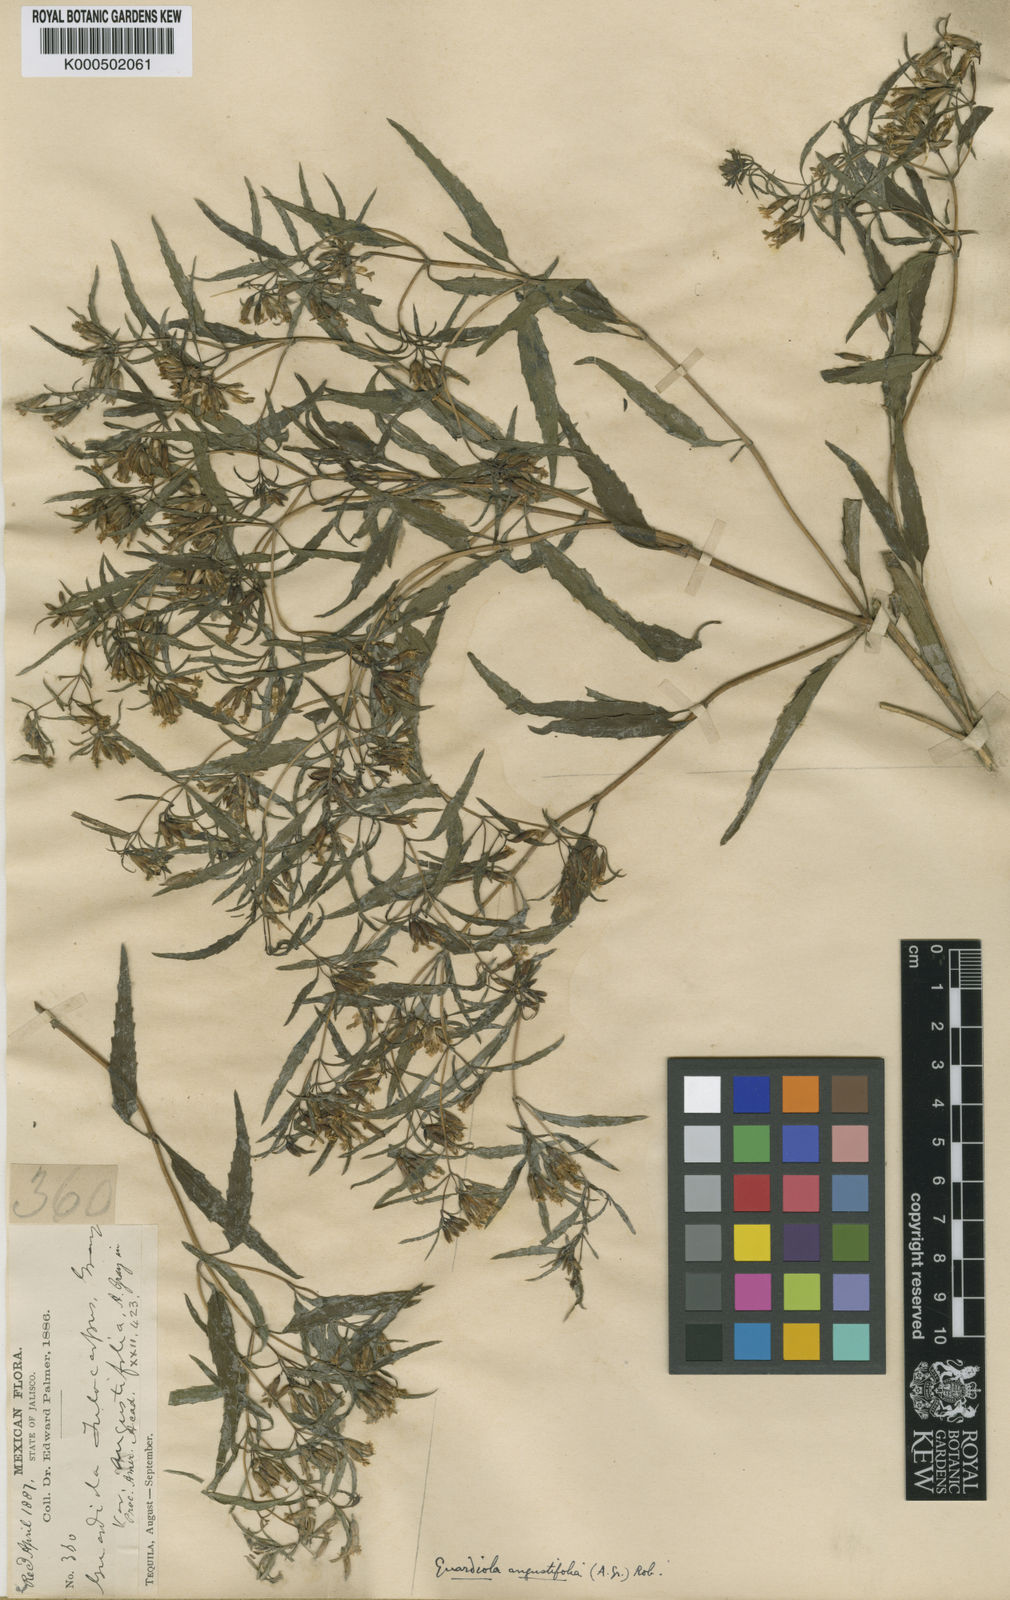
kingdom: Plantae
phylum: Tracheophyta
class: Magnoliopsida
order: Asterales
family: Asteraceae
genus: Guardiola
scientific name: Guardiola mexicana
